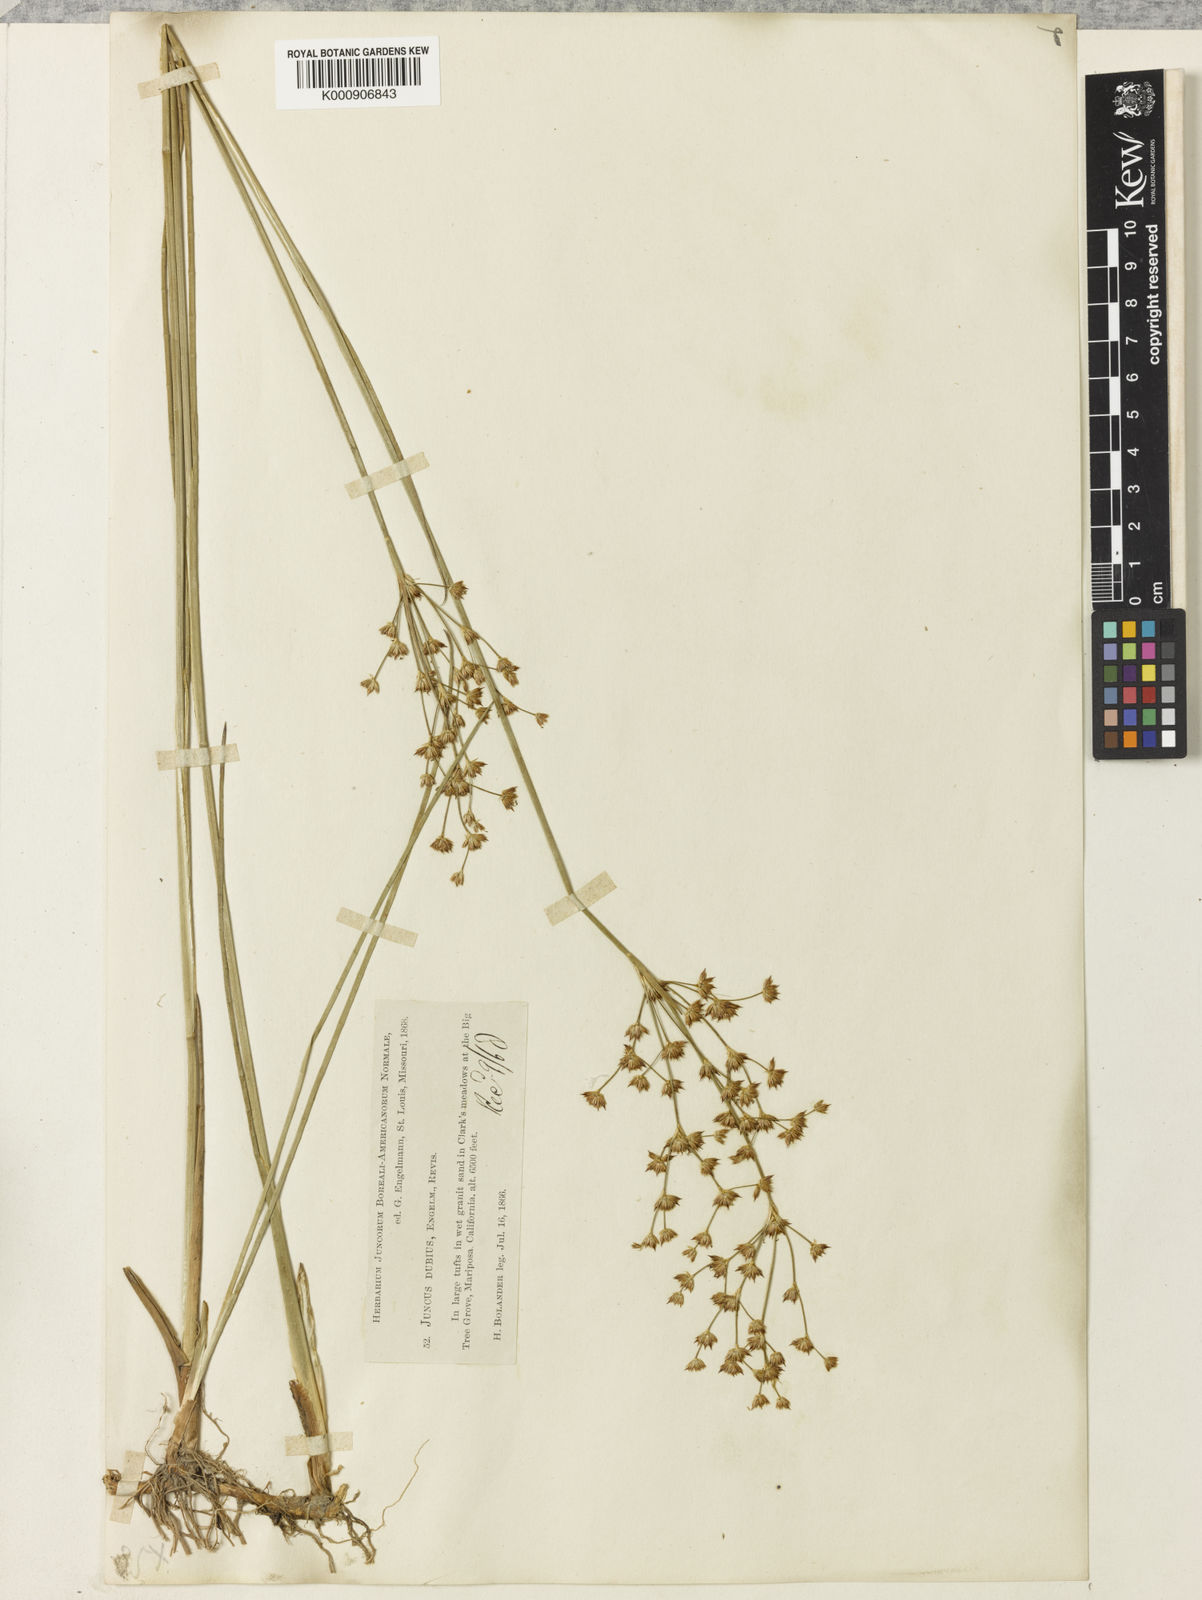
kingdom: Plantae
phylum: Tracheophyta
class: Liliopsida
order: Poales
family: Juncaceae
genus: Juncus
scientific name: Juncus dubius
